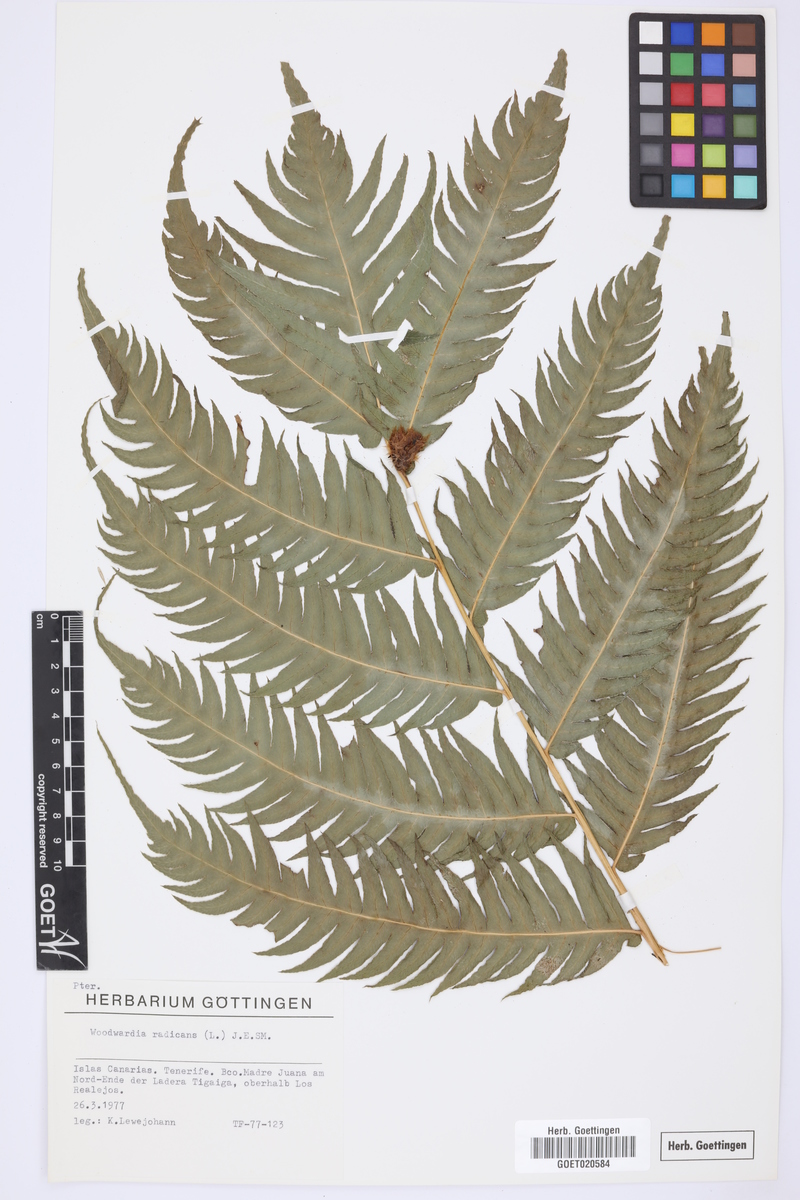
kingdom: Plantae
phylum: Tracheophyta
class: Polypodiopsida
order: Polypodiales
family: Blechnaceae
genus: Woodwardia
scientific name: Woodwardia radicans
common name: Rooting chainfern
